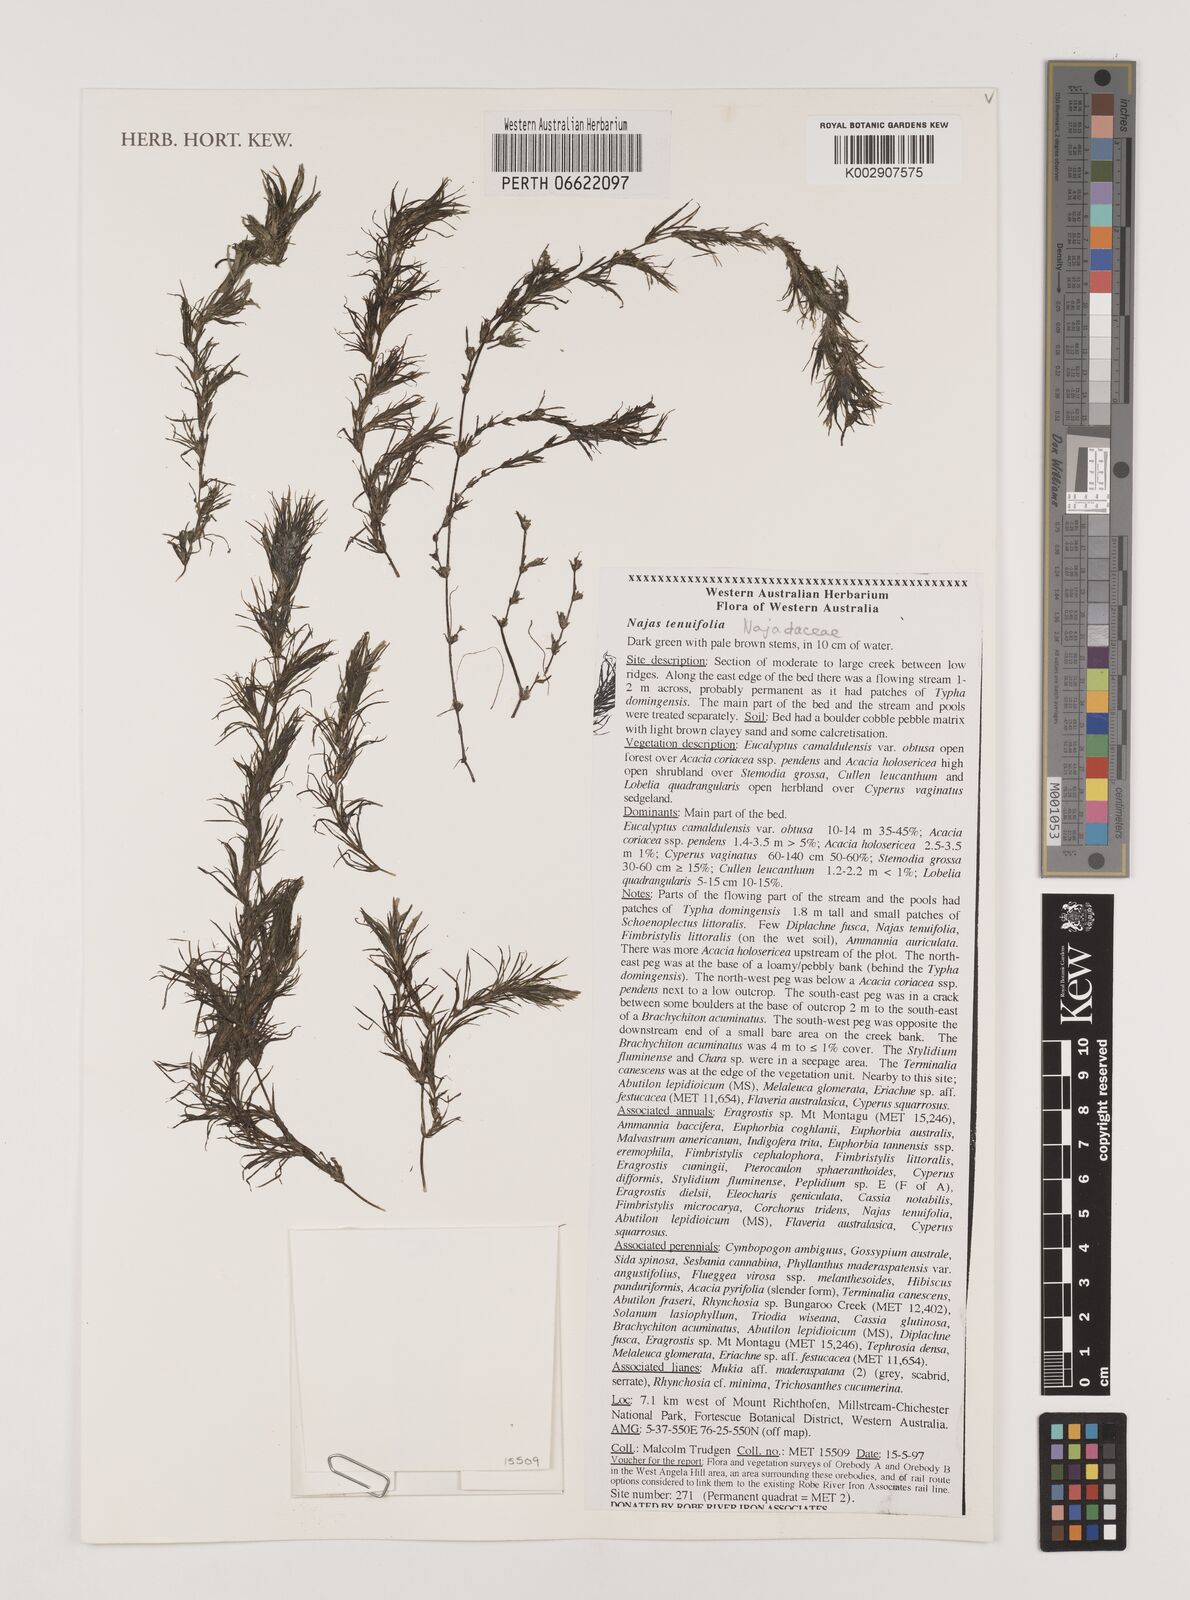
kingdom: Plantae
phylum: Tracheophyta
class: Liliopsida
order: Alismatales
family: Hydrocharitaceae
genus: Najas
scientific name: Najas tenuifolia
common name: Thin-leaved naiad
